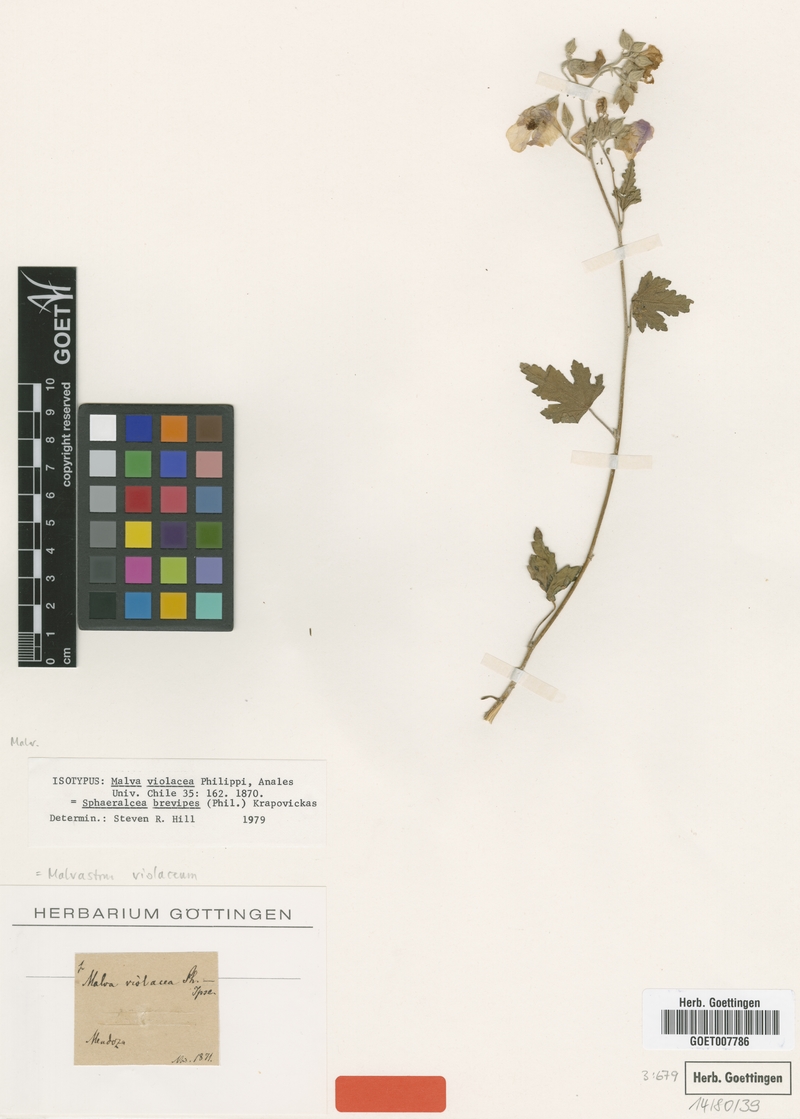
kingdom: Plantae
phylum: Tracheophyta
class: Magnoliopsida
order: Malvales
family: Malvaceae
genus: Sphaeralcea
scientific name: Sphaeralcea brevipes
